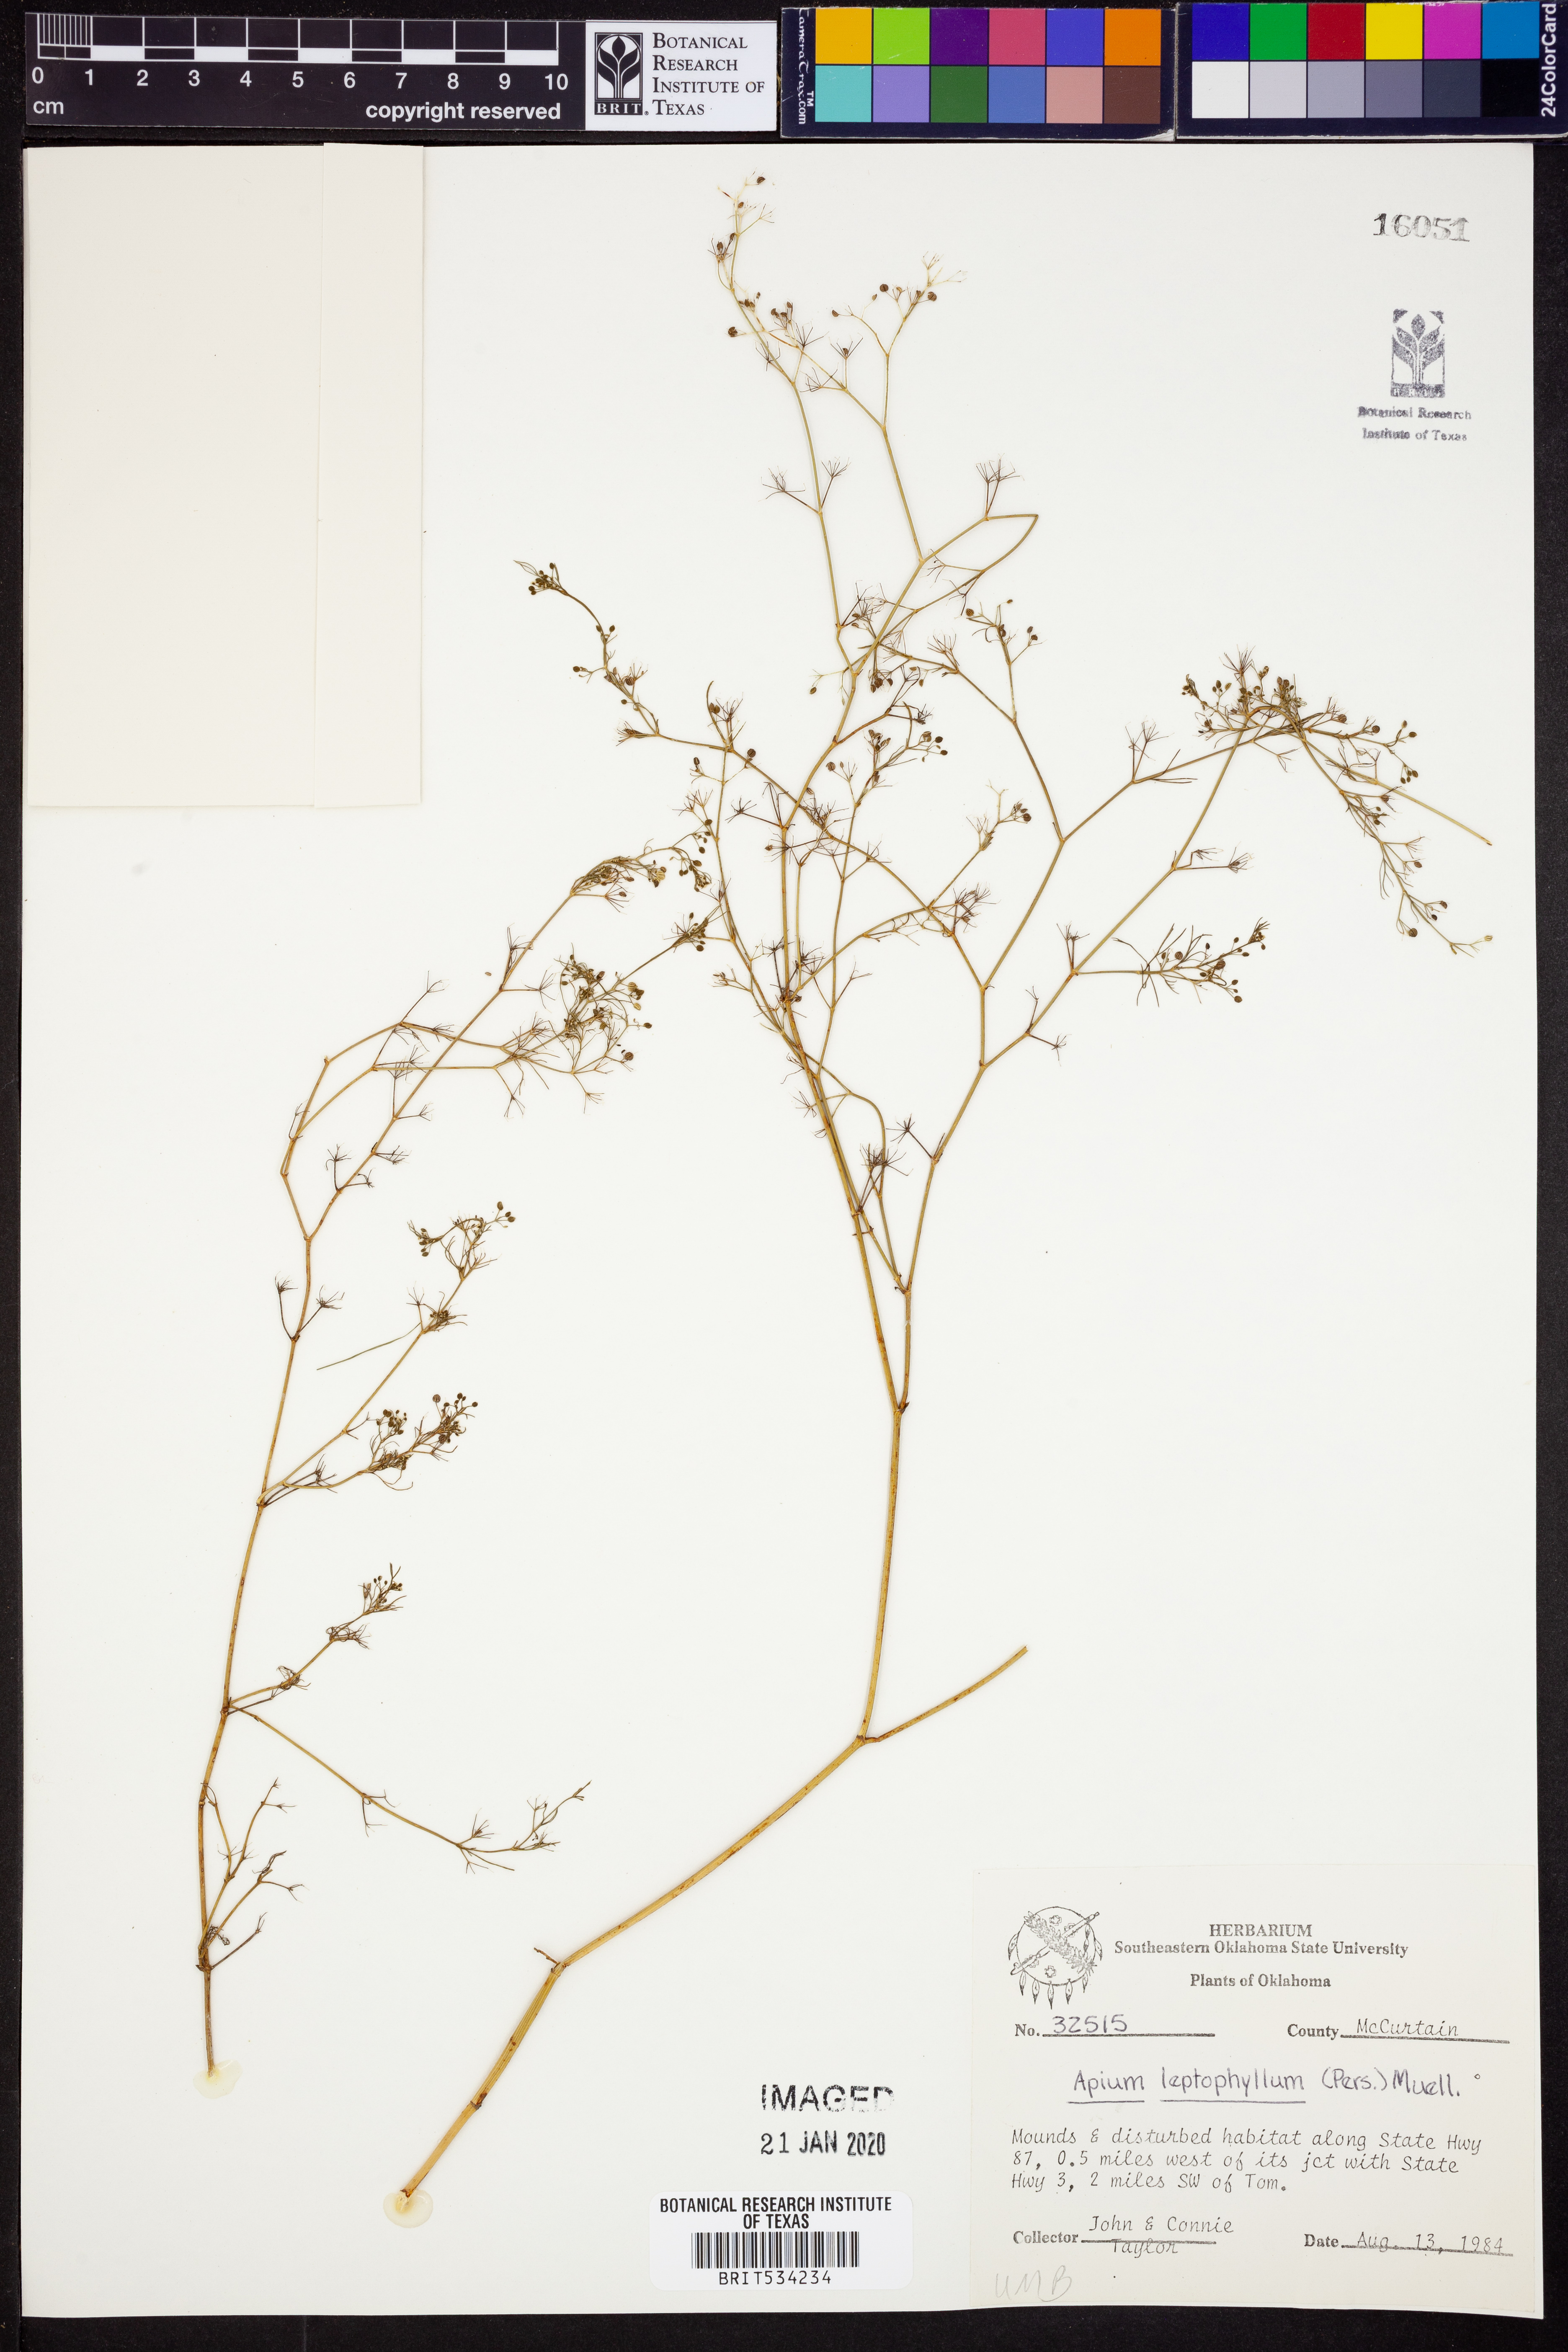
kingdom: Plantae
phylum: Tracheophyta
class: Magnoliopsida
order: Apiales
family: Apiaceae
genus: Cyclospermum
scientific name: Cyclospermum leptophyllum
